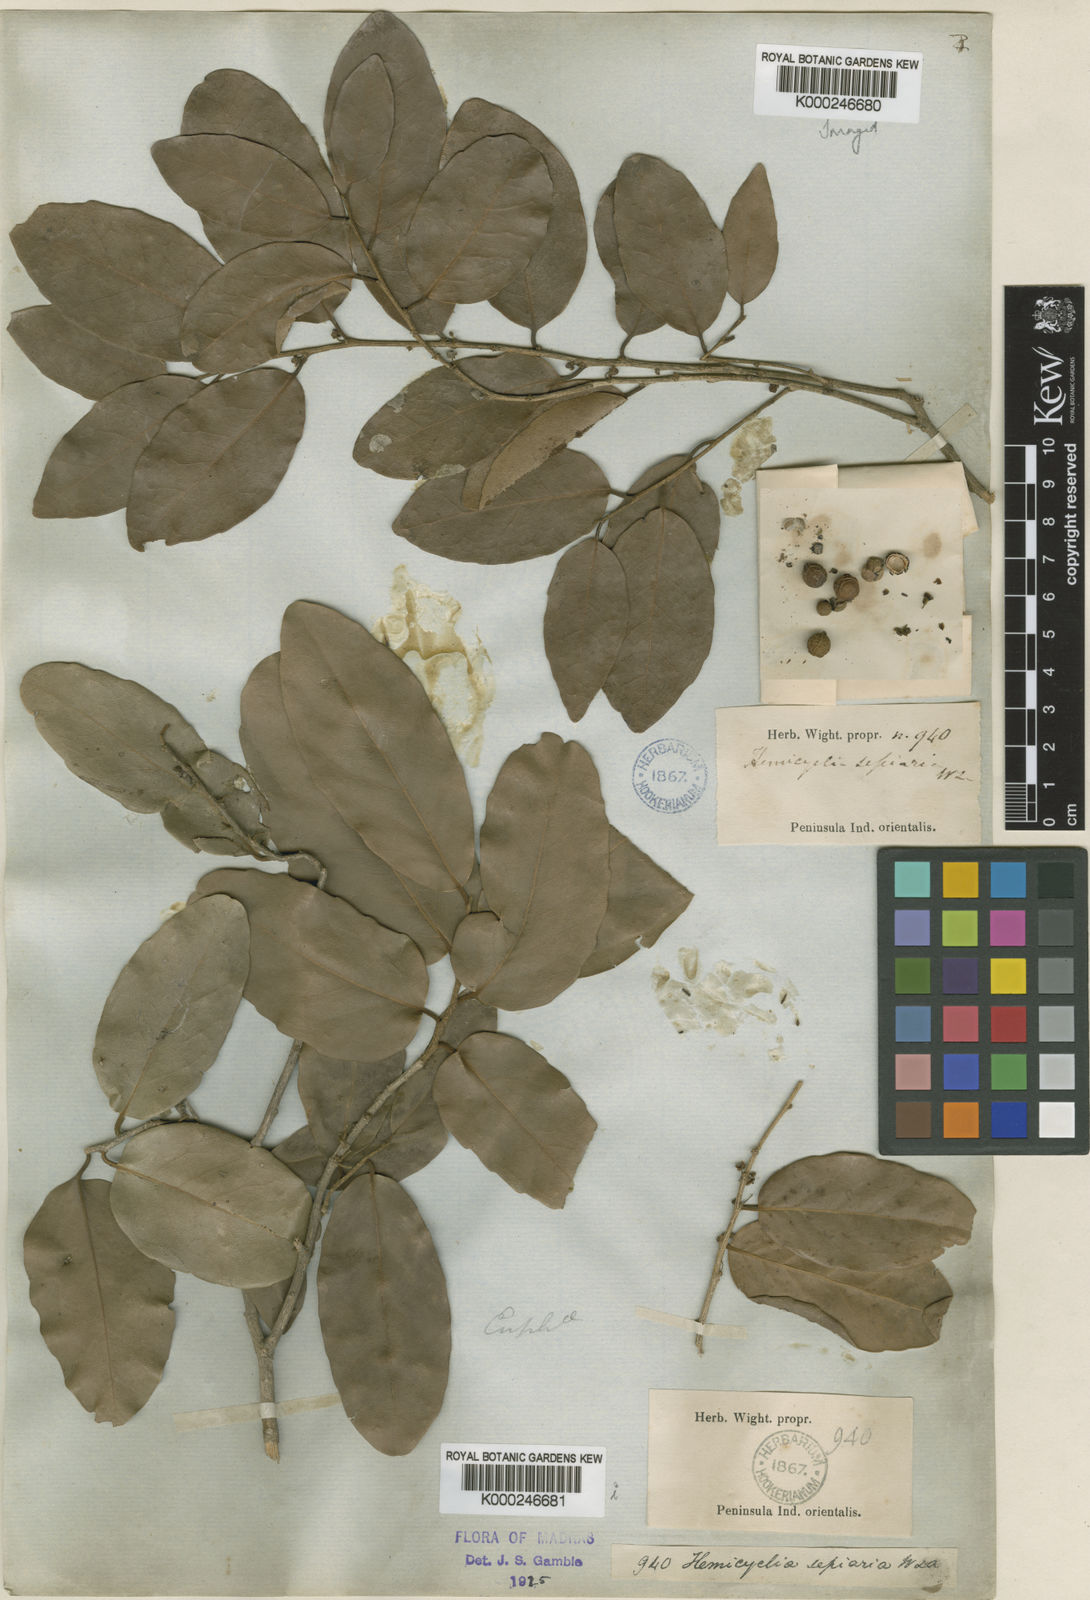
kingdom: Plantae
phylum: Tracheophyta
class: Magnoliopsida
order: Malpighiales
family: Putranjivaceae
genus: Drypetes
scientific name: Drypetes sepiaria
